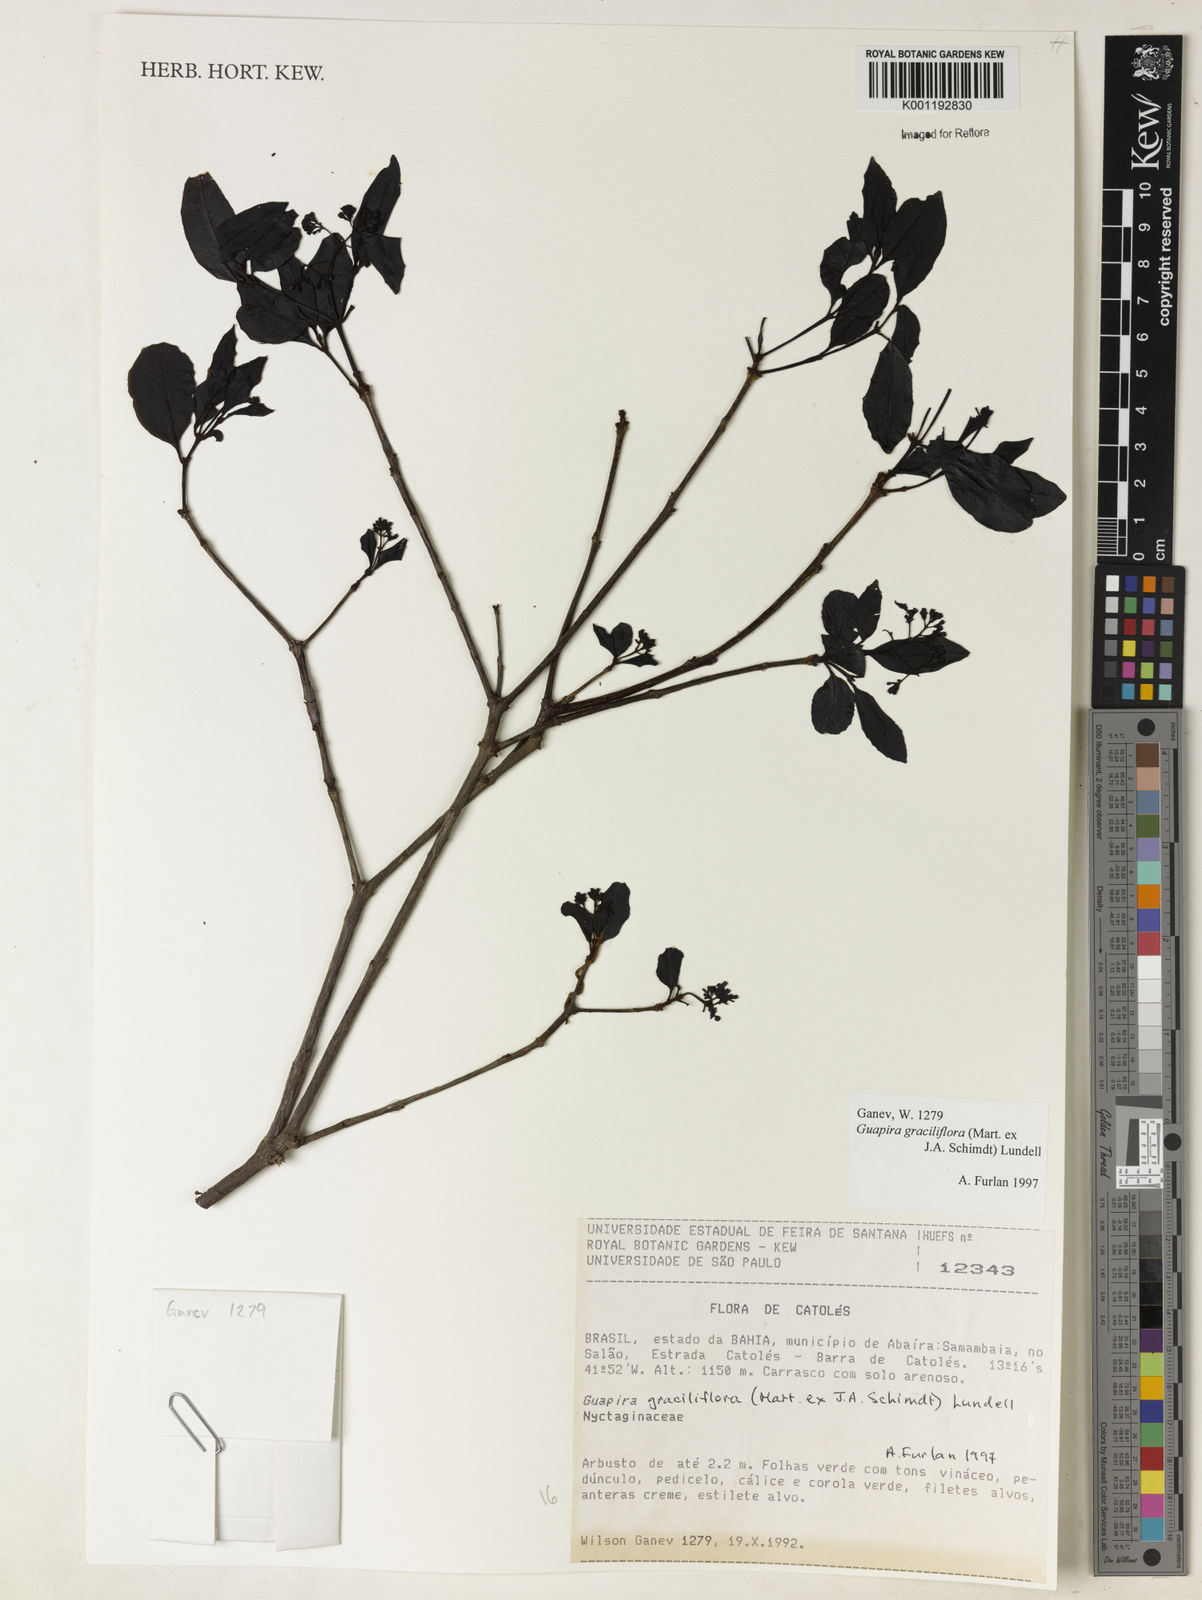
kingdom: Plantae
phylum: Tracheophyta
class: Magnoliopsida
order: Caryophyllales
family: Nyctaginaceae
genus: Guapira
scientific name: Guapira graciliflora
